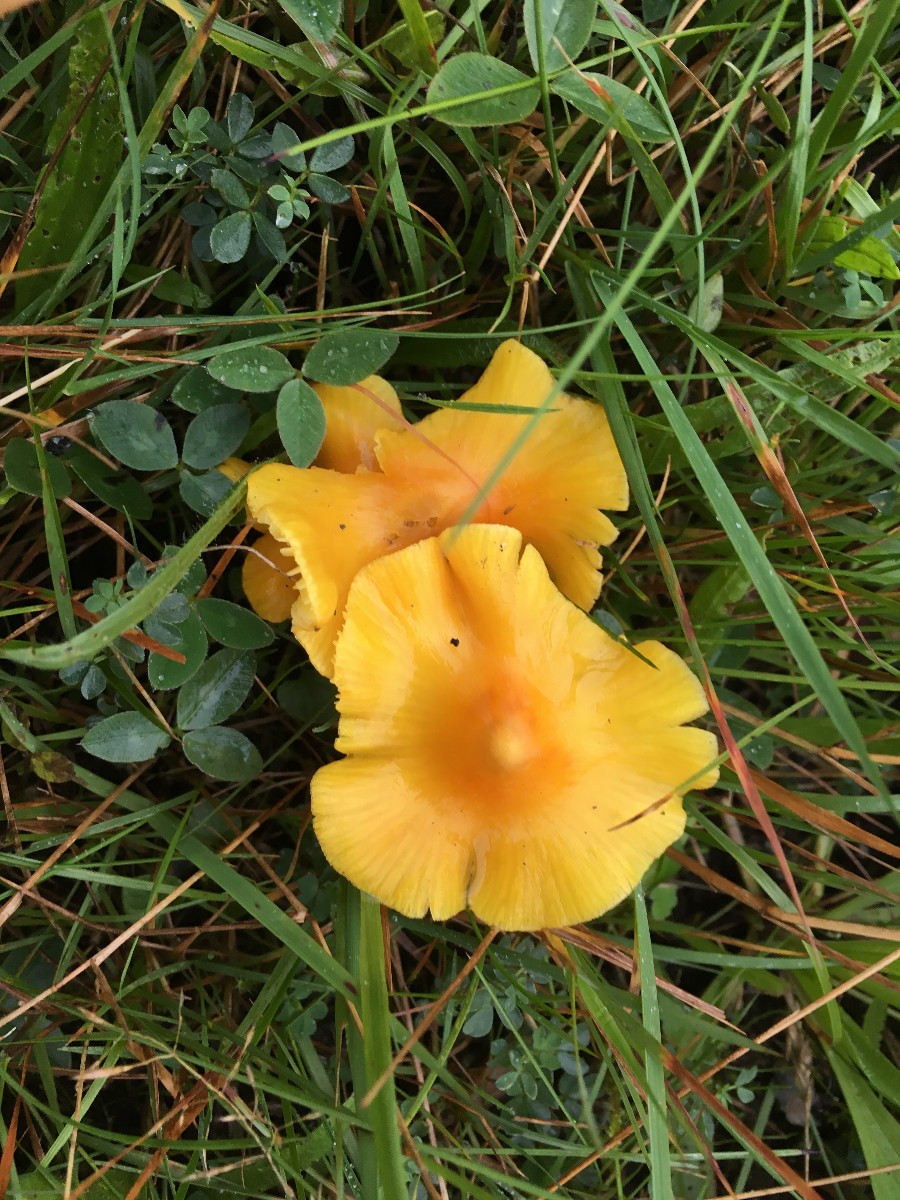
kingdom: Fungi
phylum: Basidiomycota
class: Agaricomycetes
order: Agaricales
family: Hygrophoraceae
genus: Hygrocybe
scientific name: Hygrocybe acutoconica
